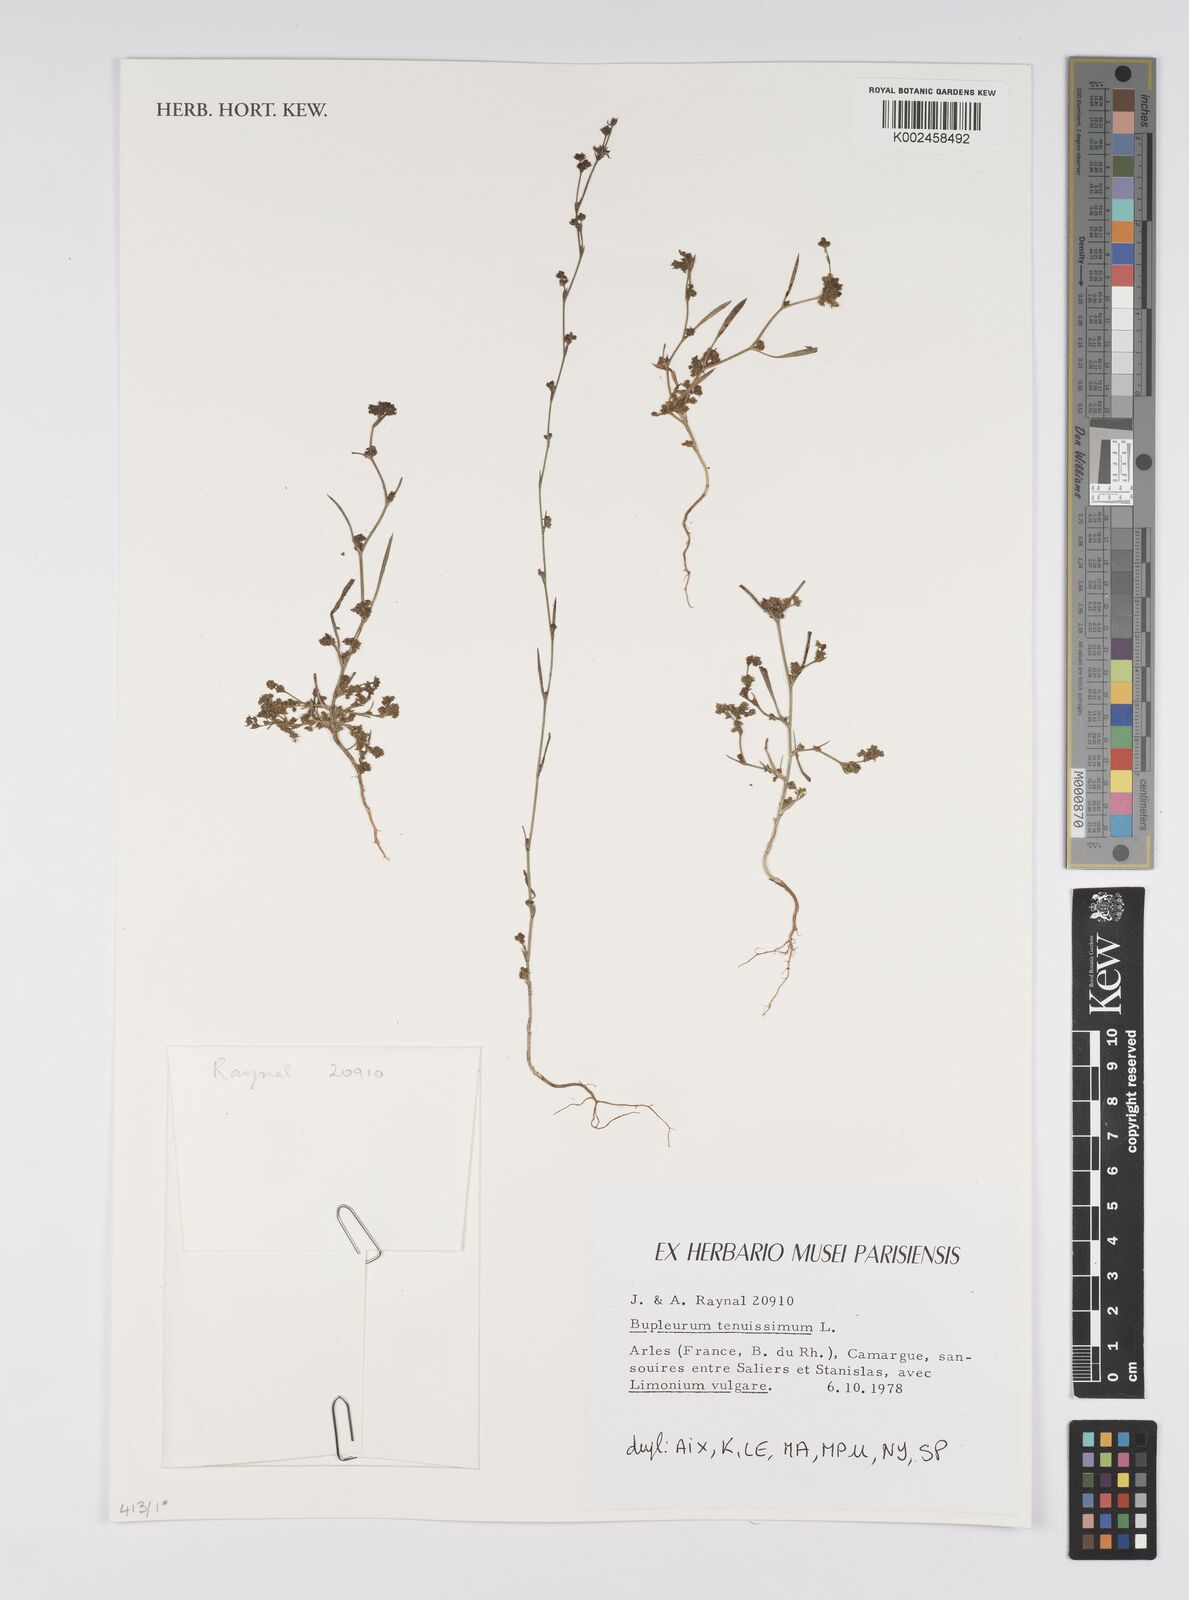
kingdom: Plantae
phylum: Tracheophyta
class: Magnoliopsida
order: Apiales
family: Apiaceae
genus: Bupleurum
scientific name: Bupleurum tenuissimum
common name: Slender hare's-ear
